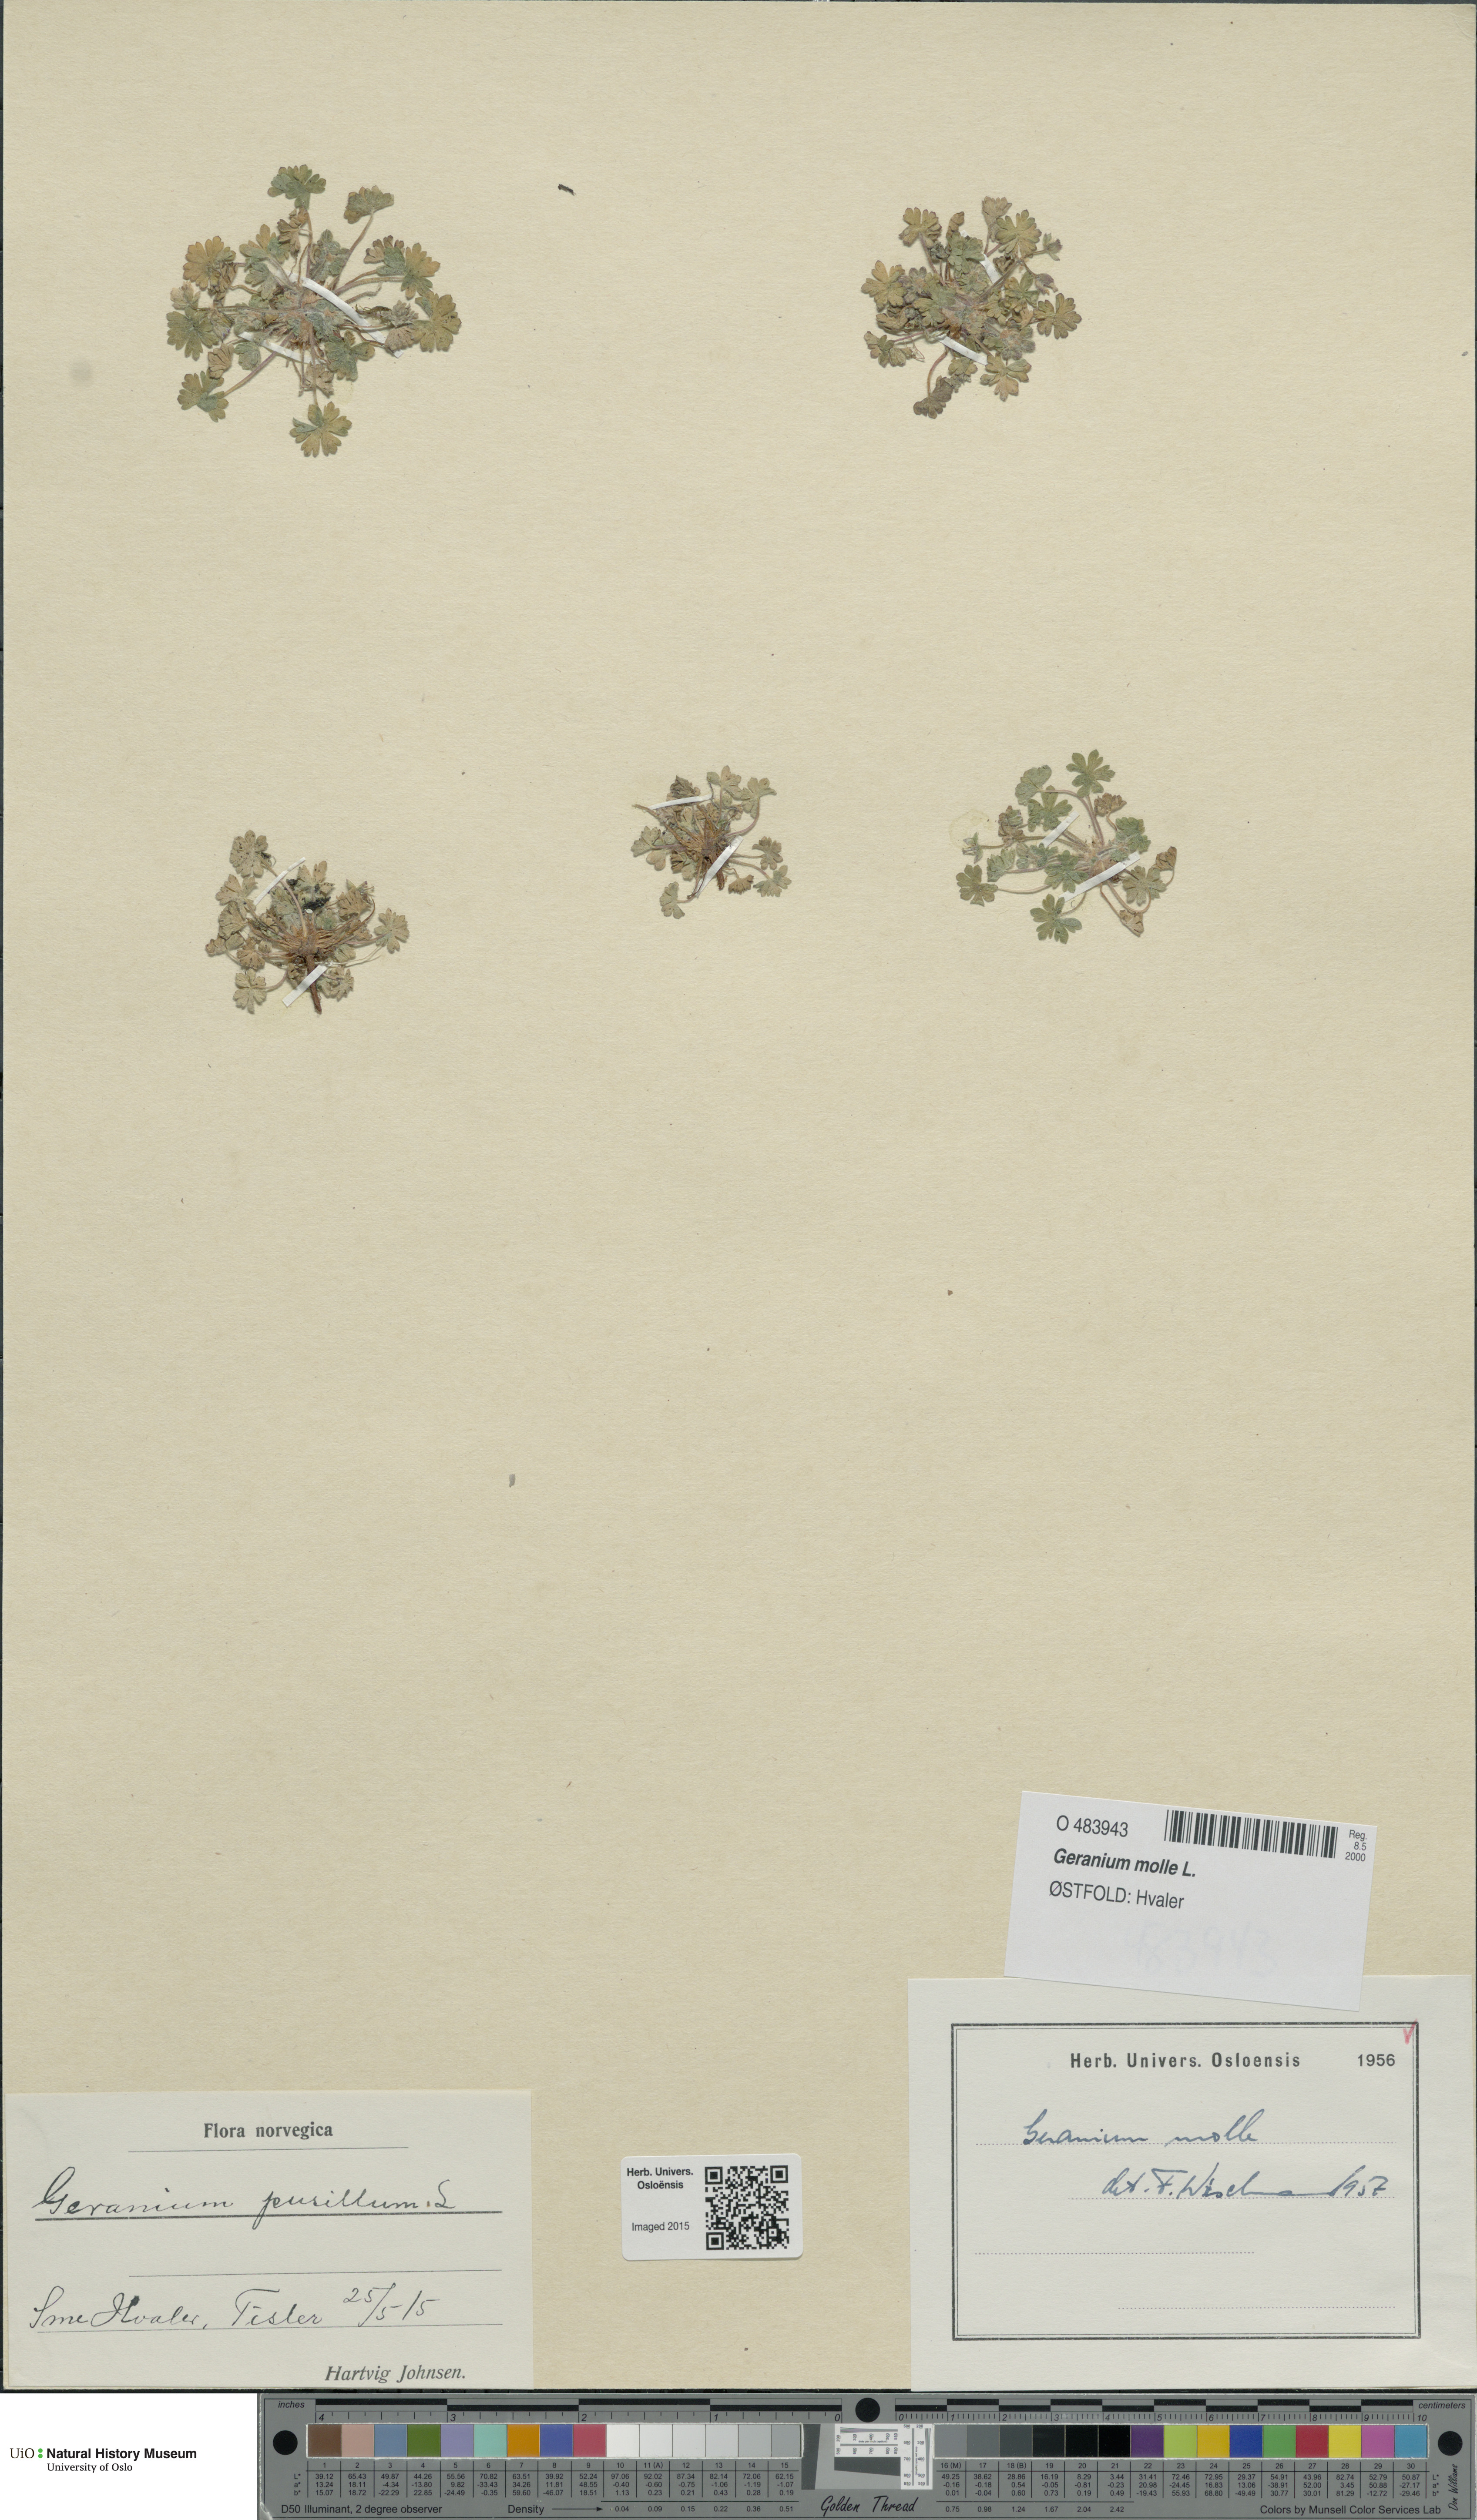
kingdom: Plantae
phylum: Tracheophyta
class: Magnoliopsida
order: Geraniales
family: Geraniaceae
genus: Geranium
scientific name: Geranium molle
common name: Dove's-foot crane's-bill
